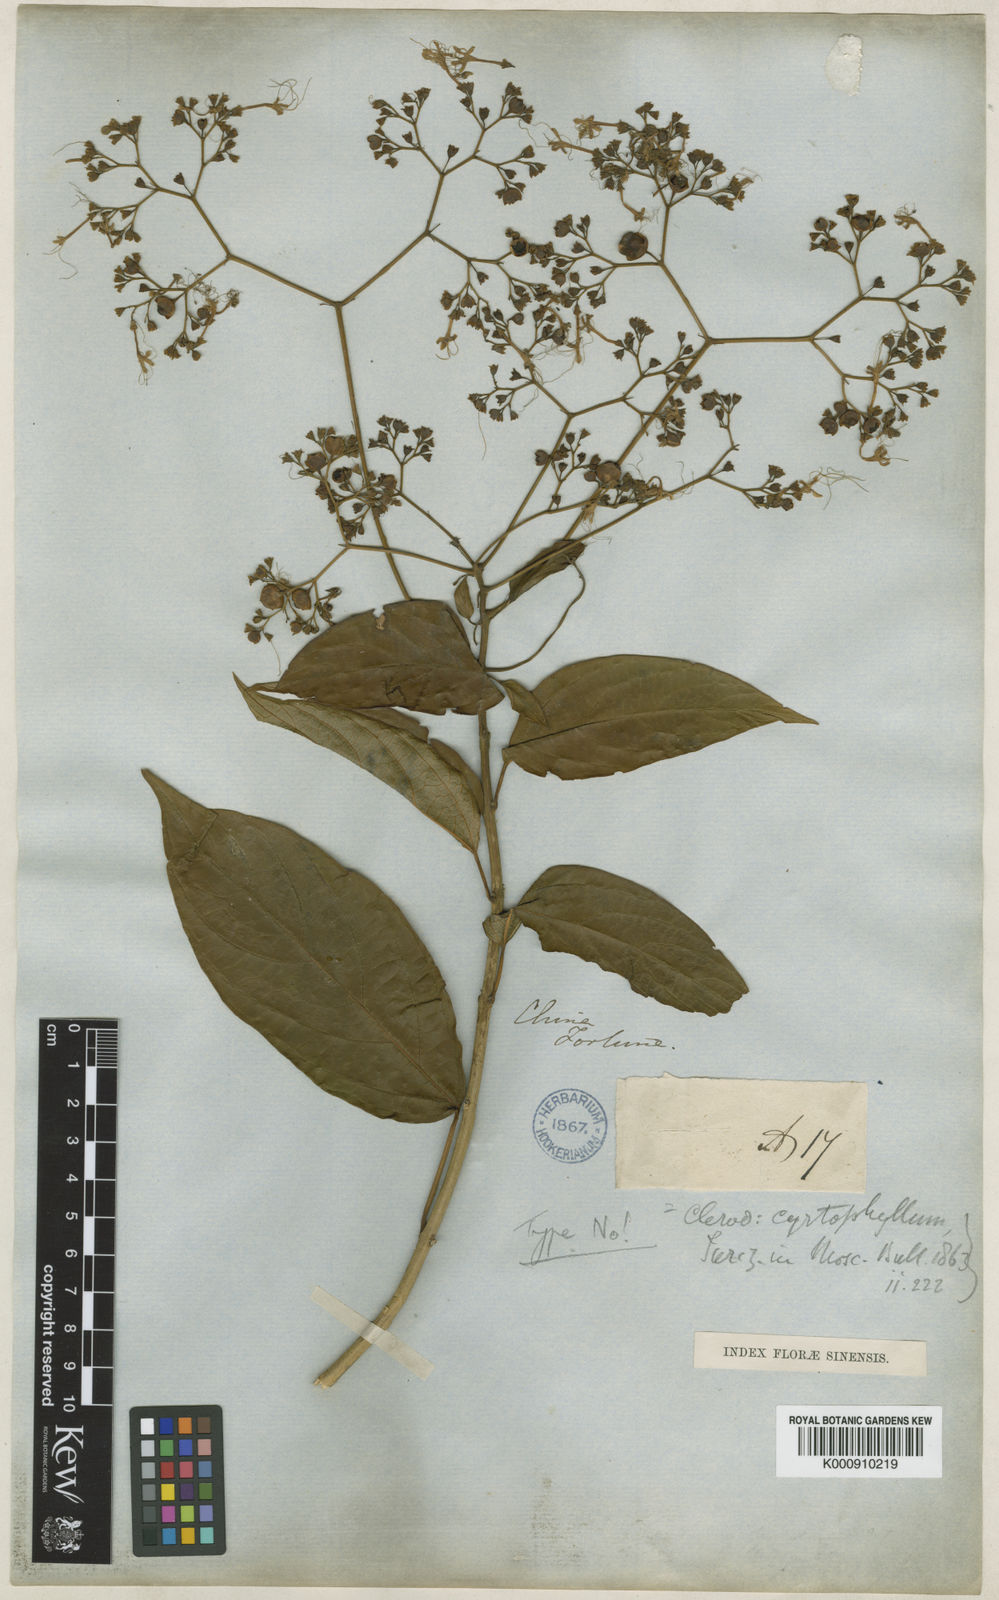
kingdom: Plantae
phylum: Tracheophyta
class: Magnoliopsida
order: Lamiales
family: Lamiaceae
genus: Clerodendrum
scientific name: Clerodendrum cyrtophyllum
